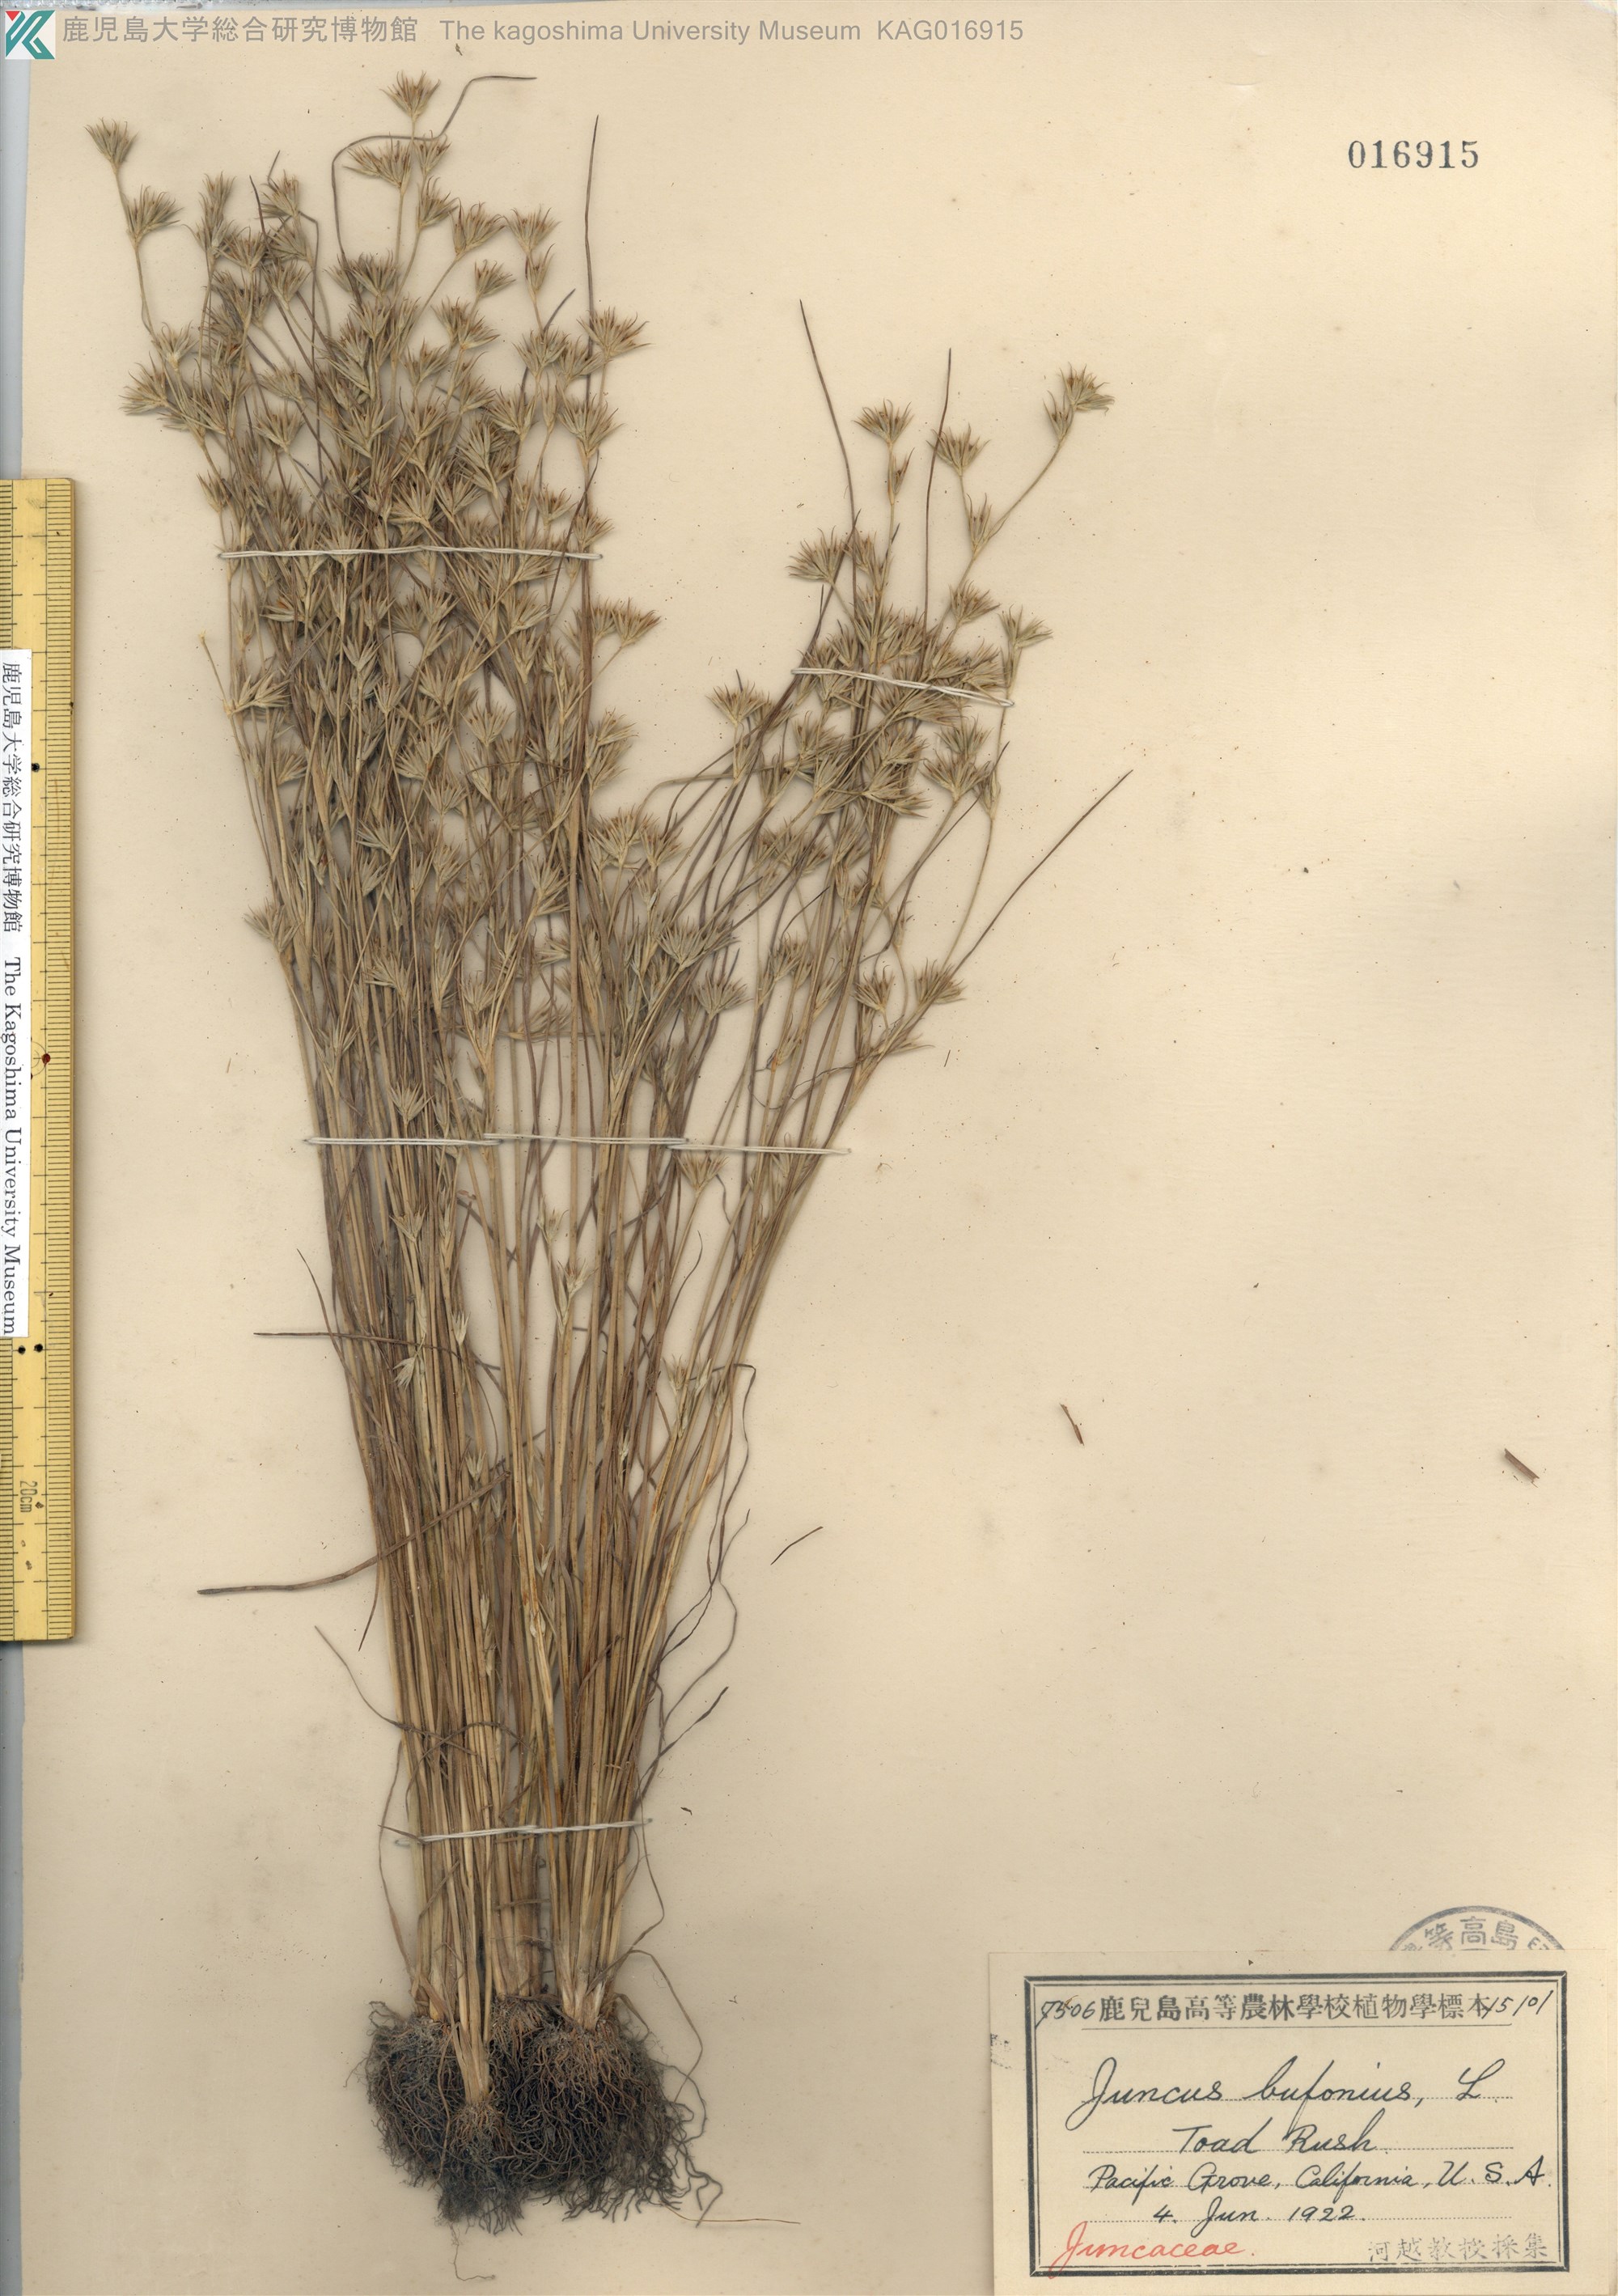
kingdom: Plantae
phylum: Tracheophyta
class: Liliopsida
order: Poales
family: Juncaceae
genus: Juncus
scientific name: Juncus bufonius
